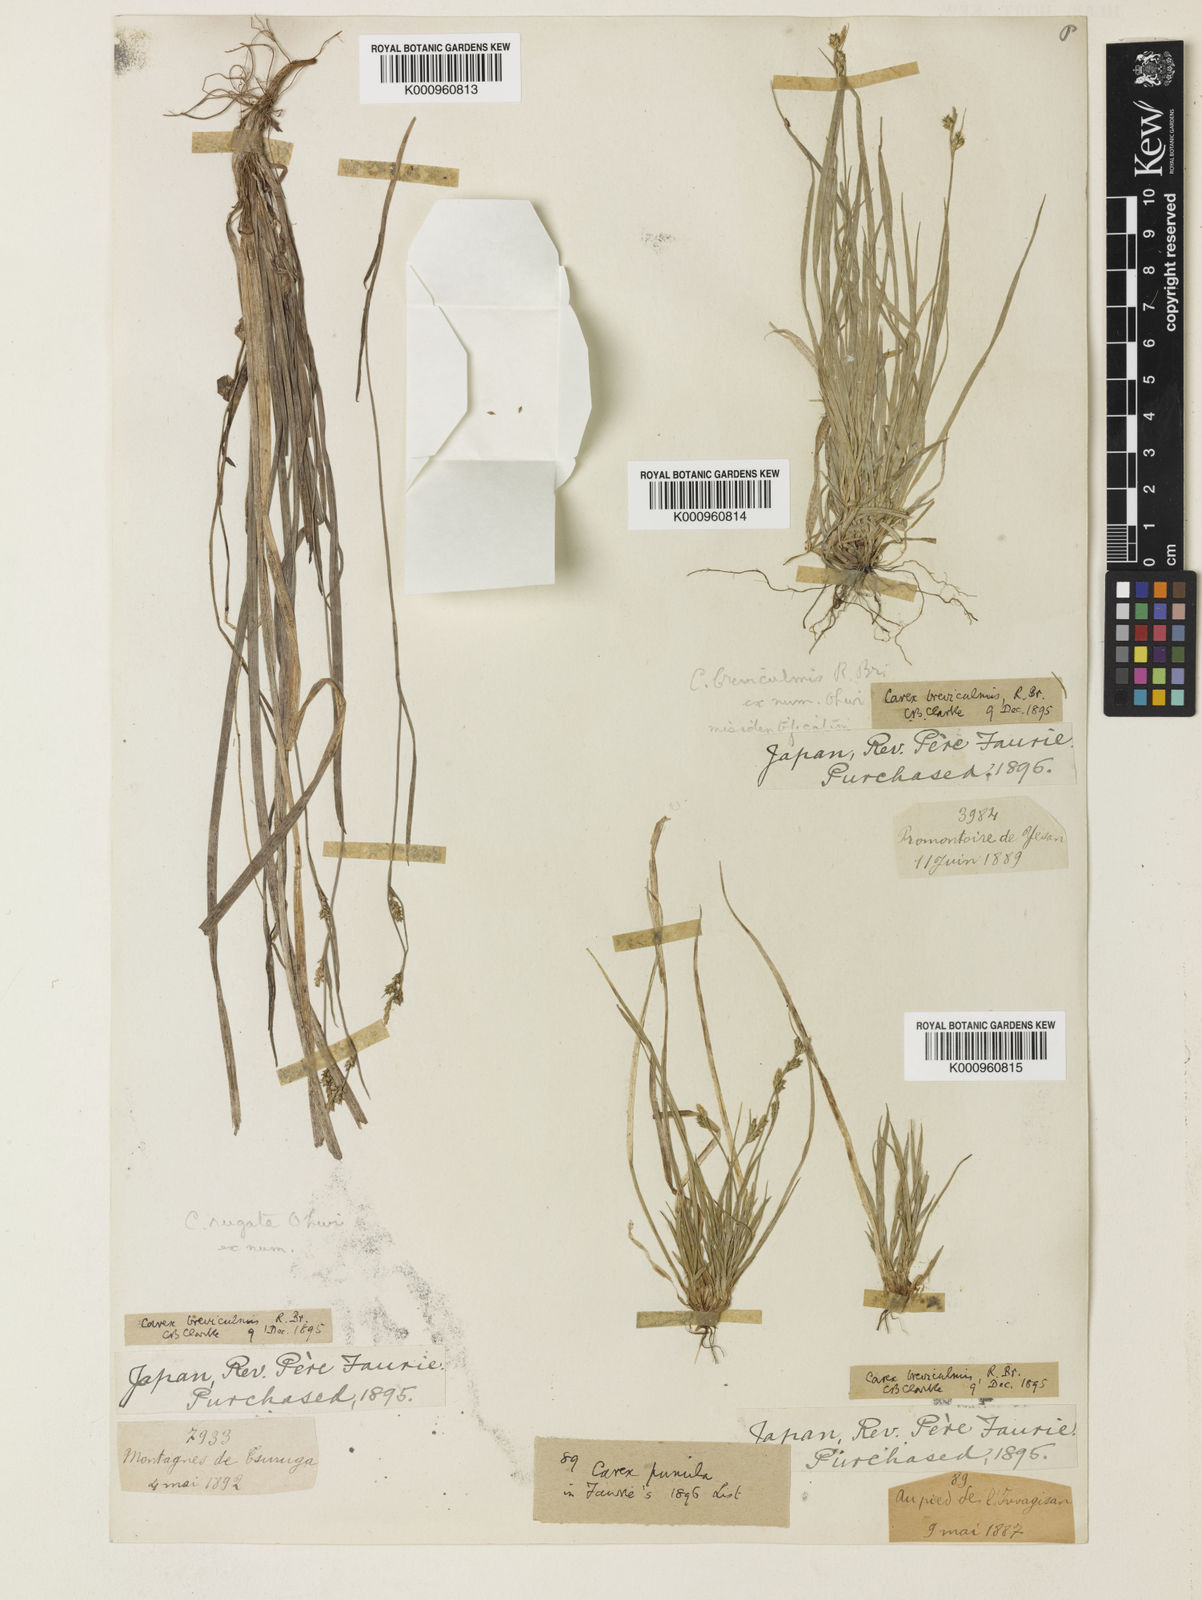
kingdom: Plantae
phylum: Tracheophyta
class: Liliopsida
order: Poales
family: Cyperaceae
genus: Carex
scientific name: Carex breviculmis
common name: Asian shortstem sedge
